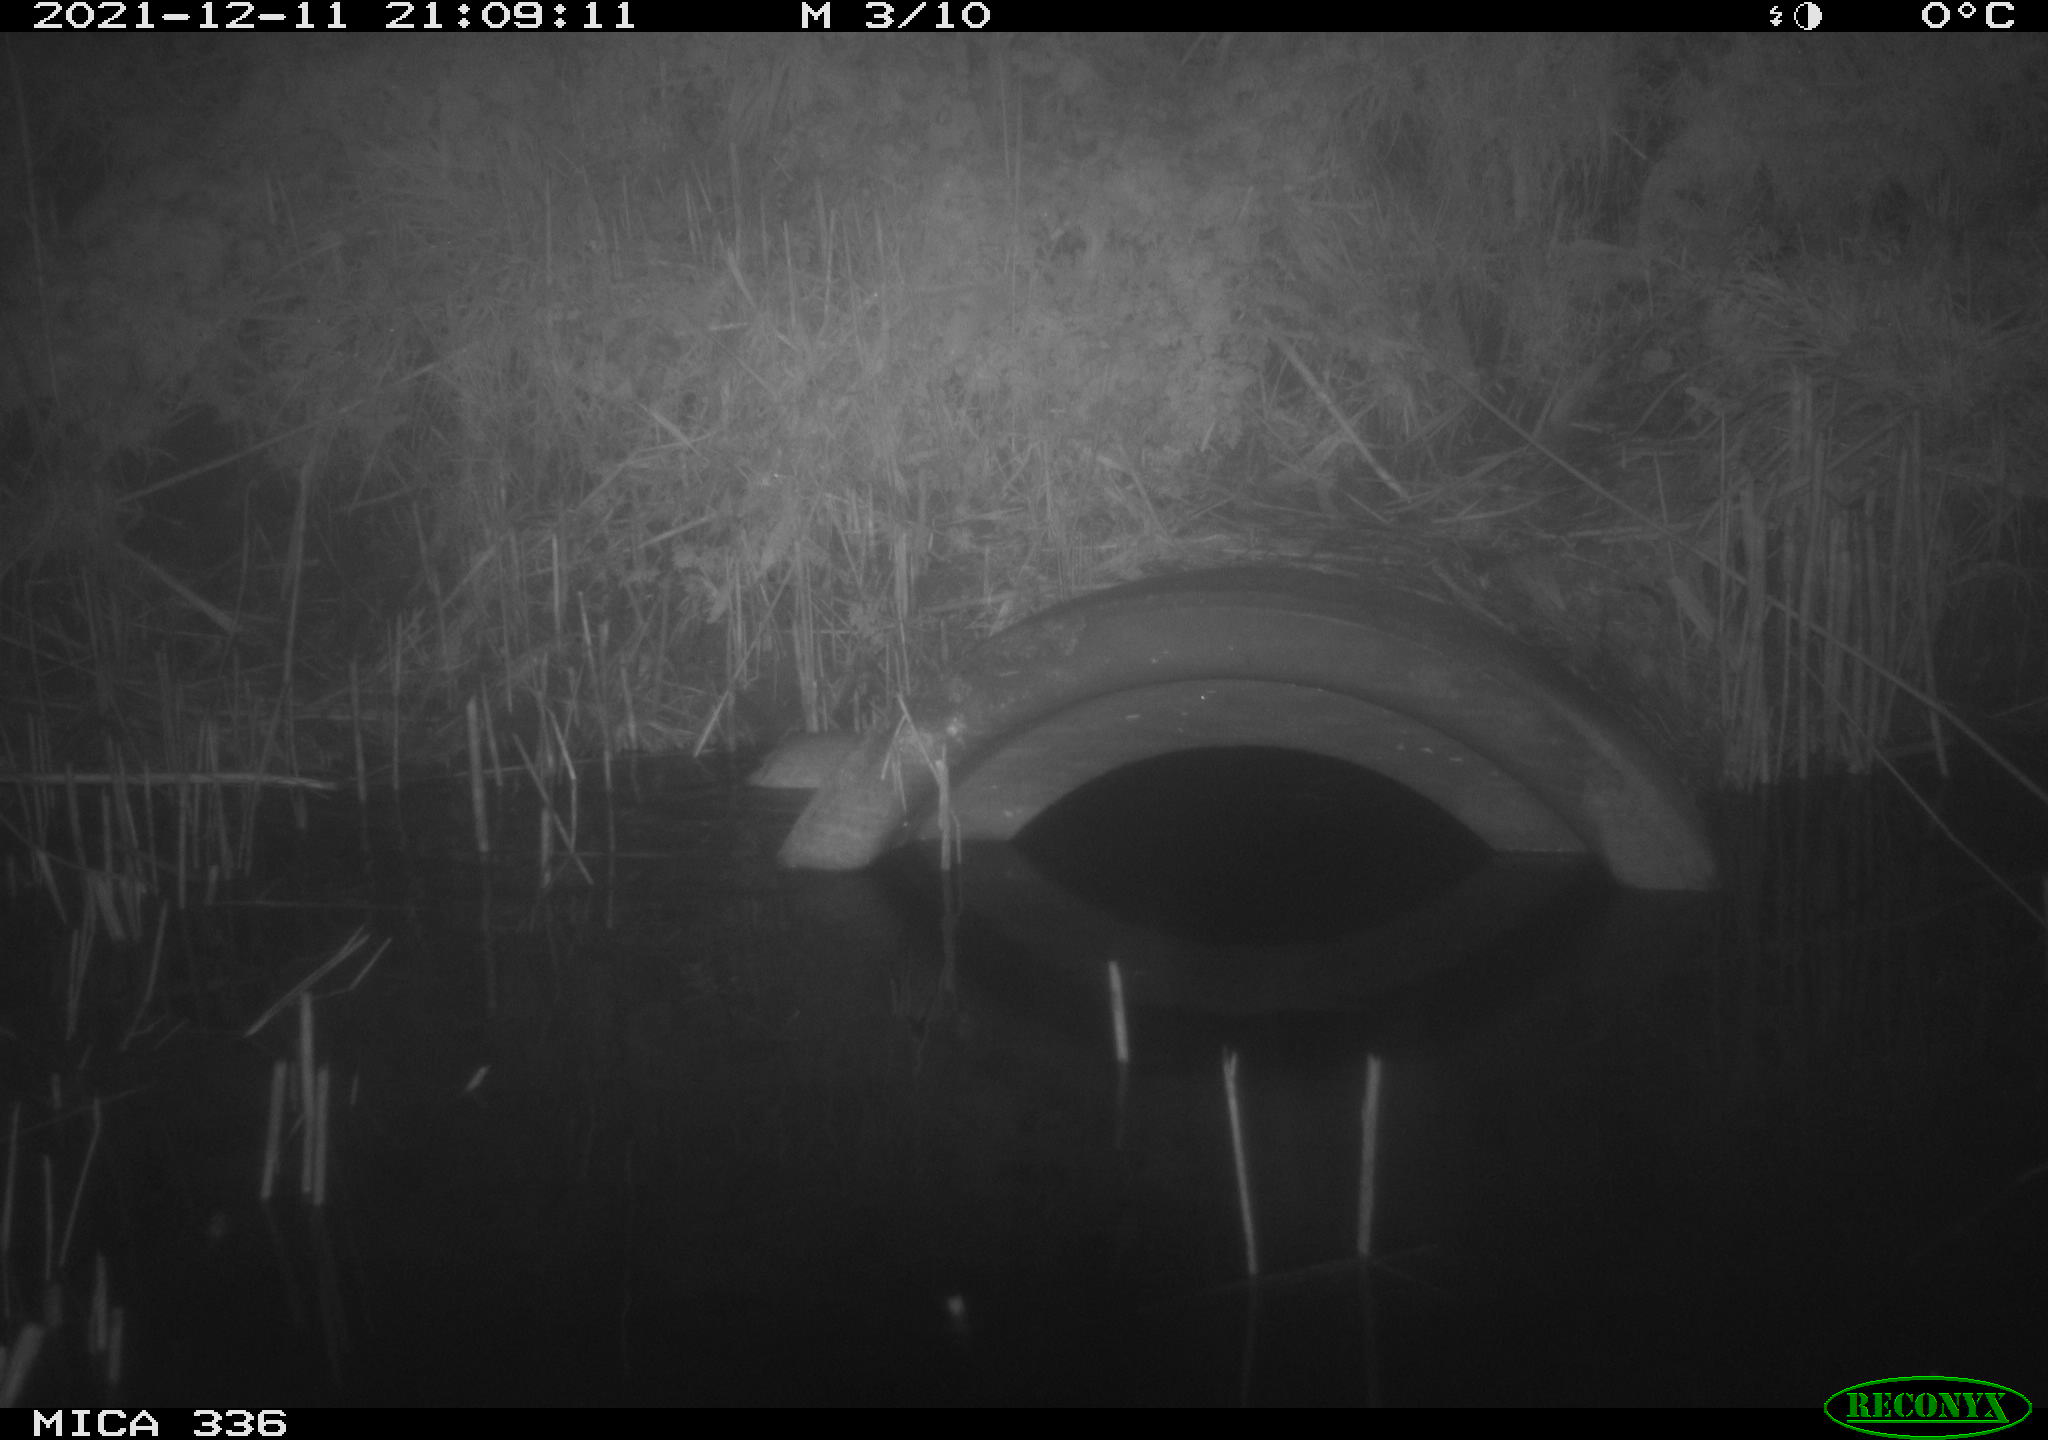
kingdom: Animalia
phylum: Chordata
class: Mammalia
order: Rodentia
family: Muridae
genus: Rattus
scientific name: Rattus norvegicus
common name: Brown rat
